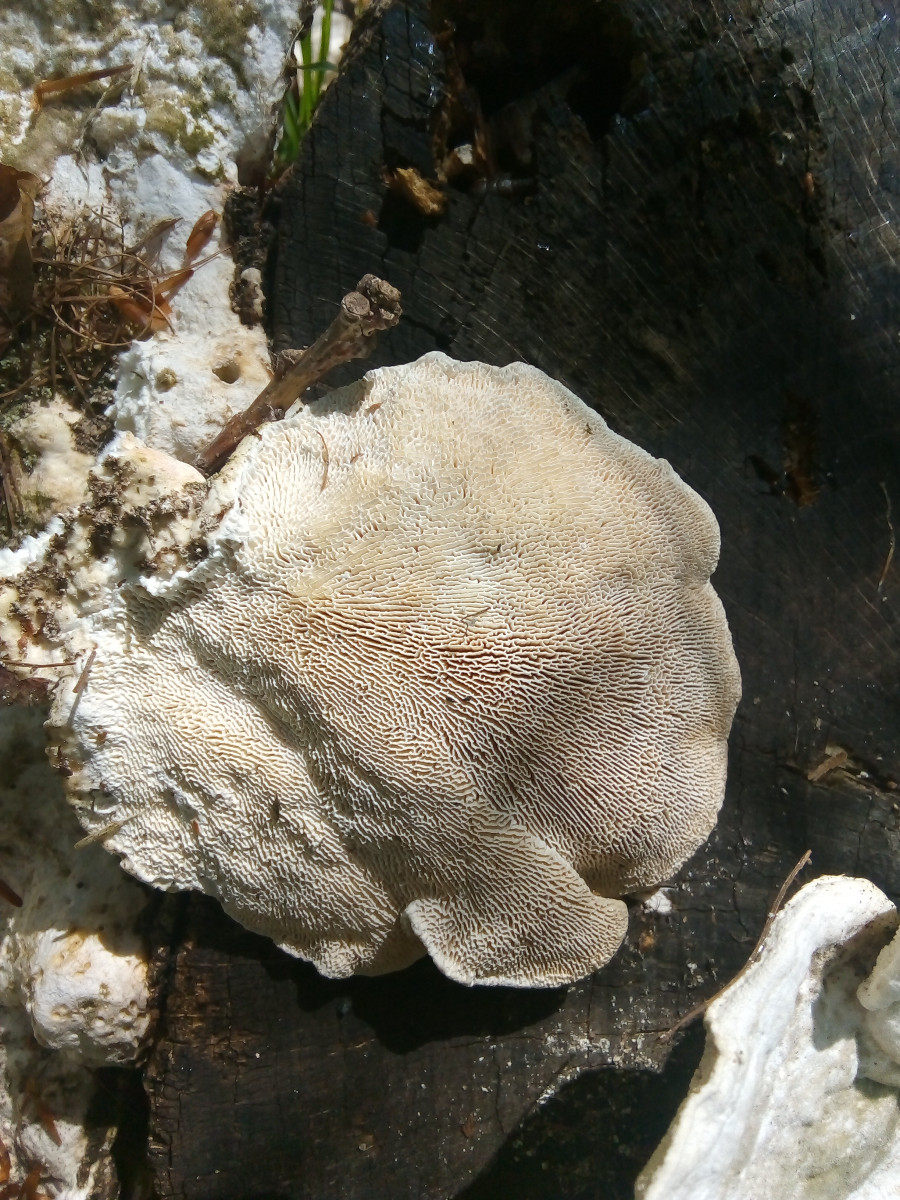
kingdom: Fungi
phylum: Basidiomycota
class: Agaricomycetes
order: Polyporales
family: Polyporaceae
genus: Trametes
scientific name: Trametes gibbosa
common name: puklet læderporesvamp
